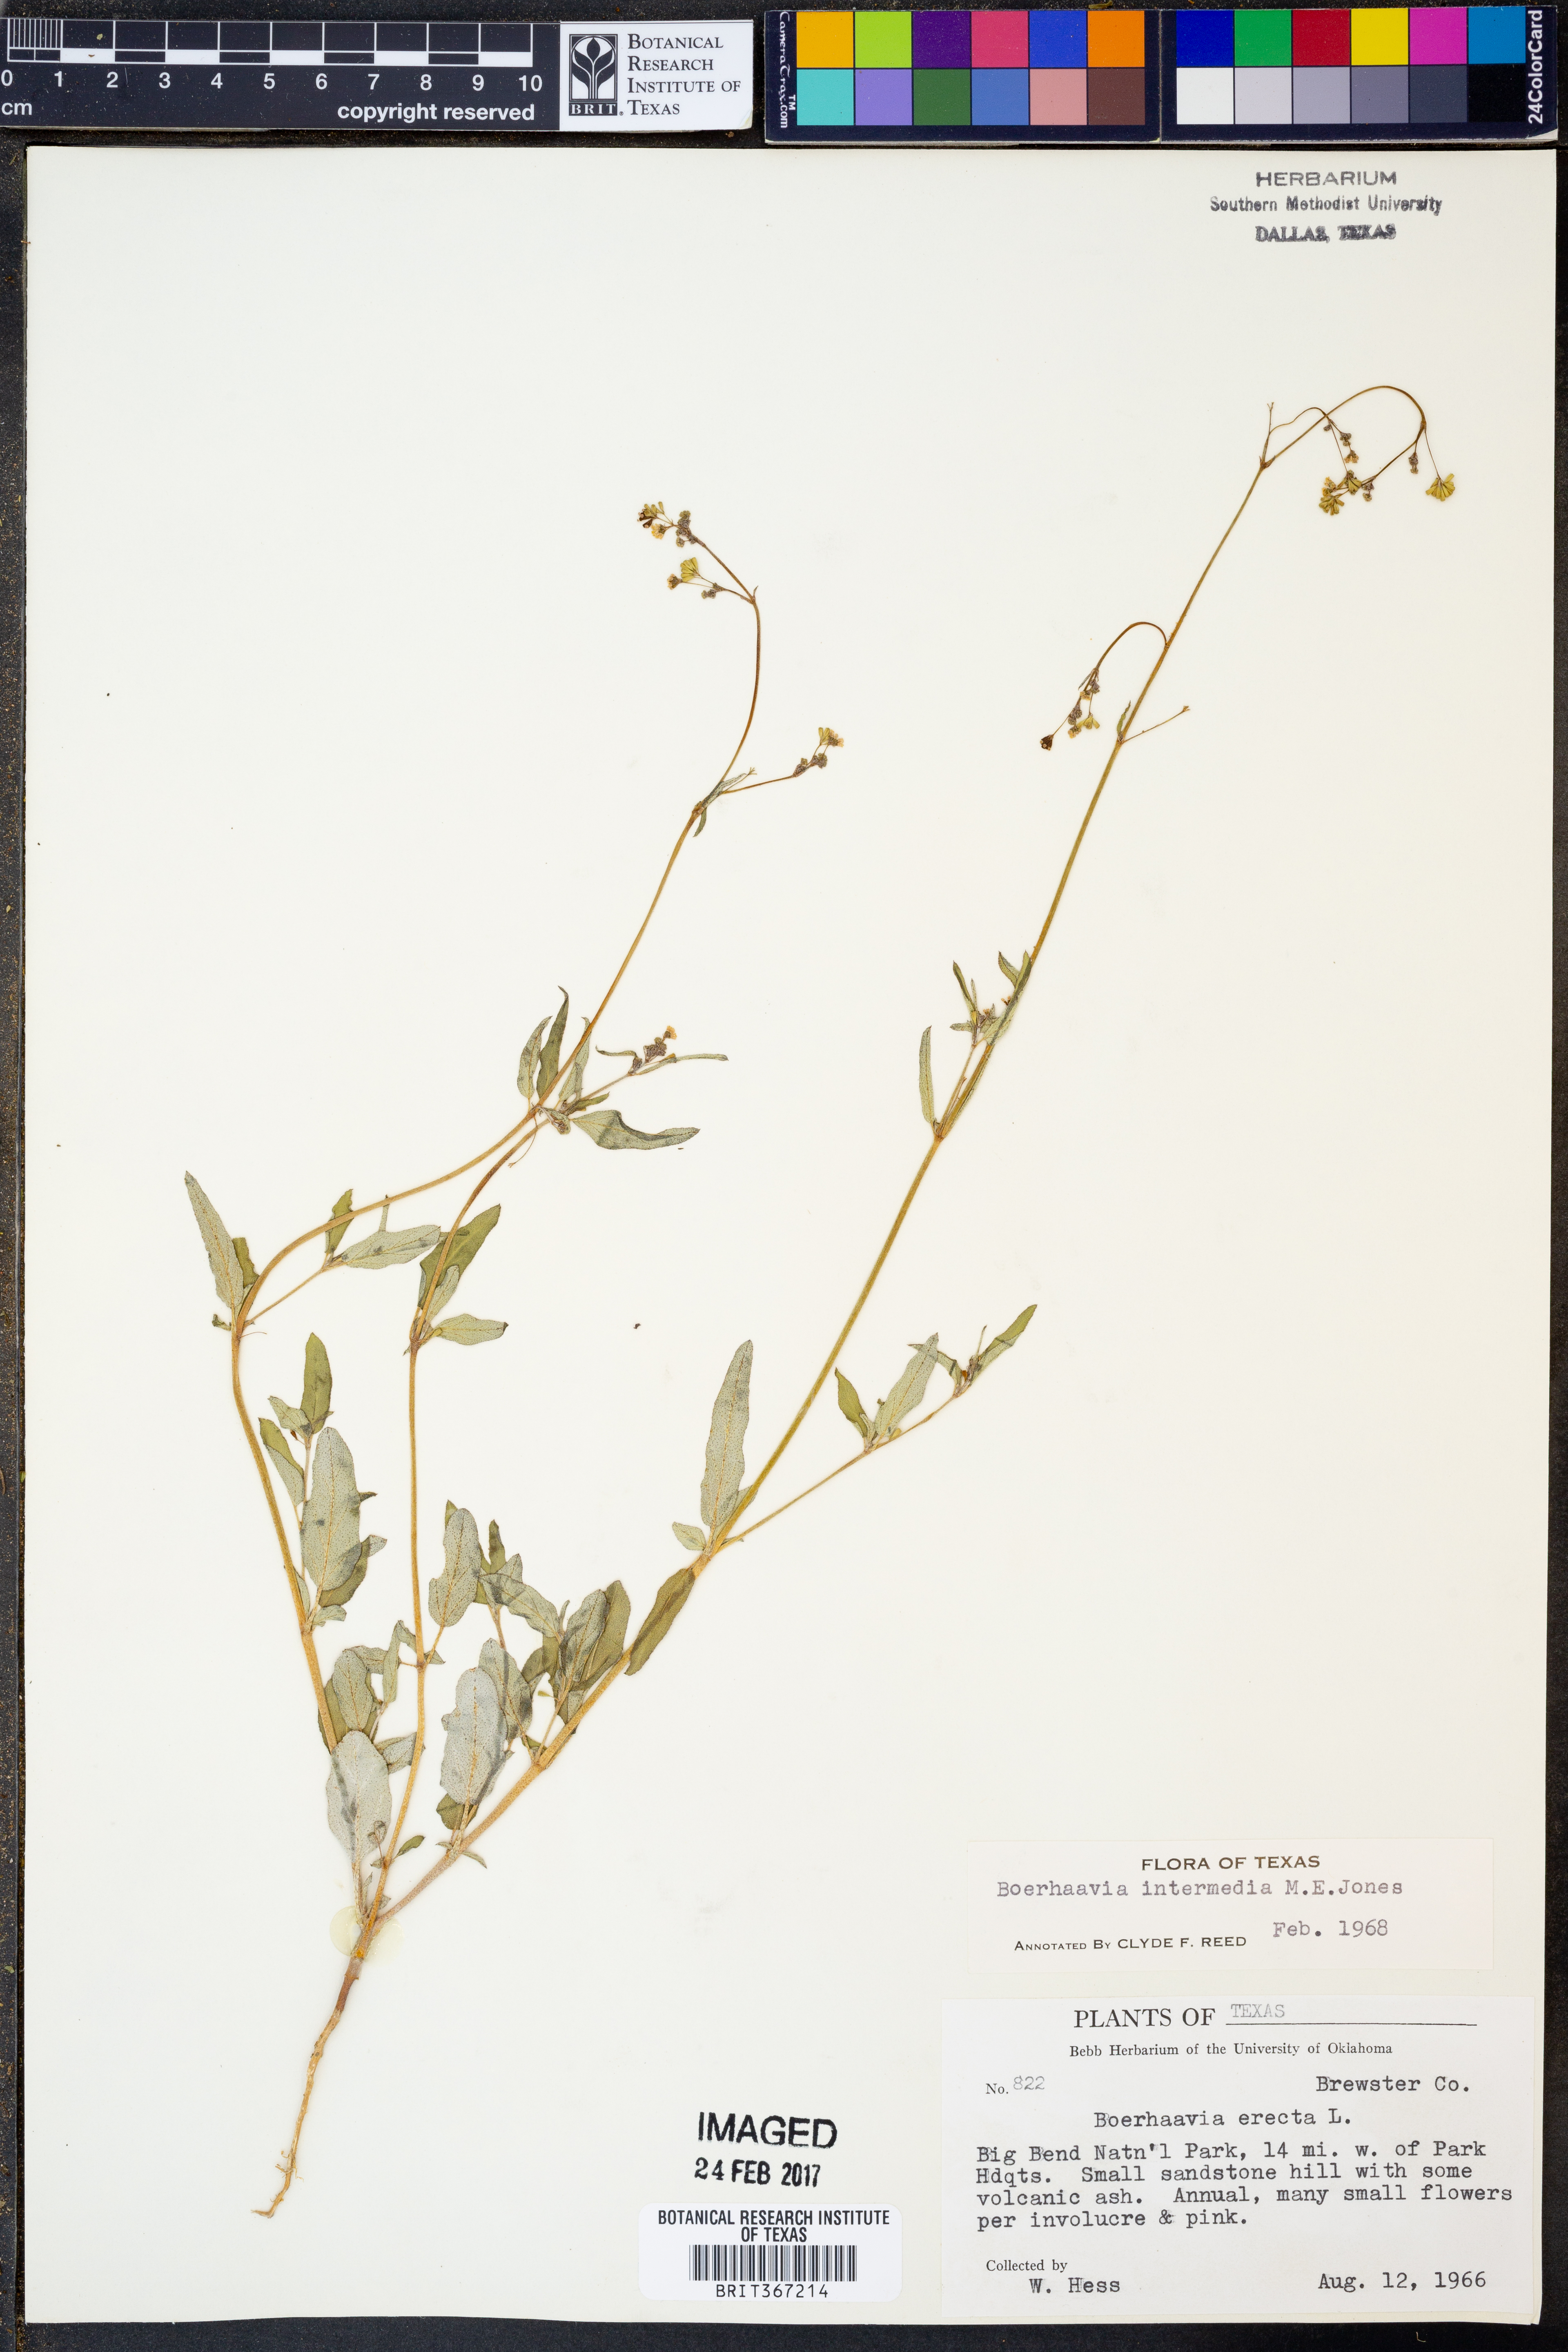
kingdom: Plantae
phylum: Tracheophyta
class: Magnoliopsida
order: Caryophyllales
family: Nyctaginaceae
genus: Boerhavia
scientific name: Boerhavia triquetra
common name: Creeping sticky-stem
